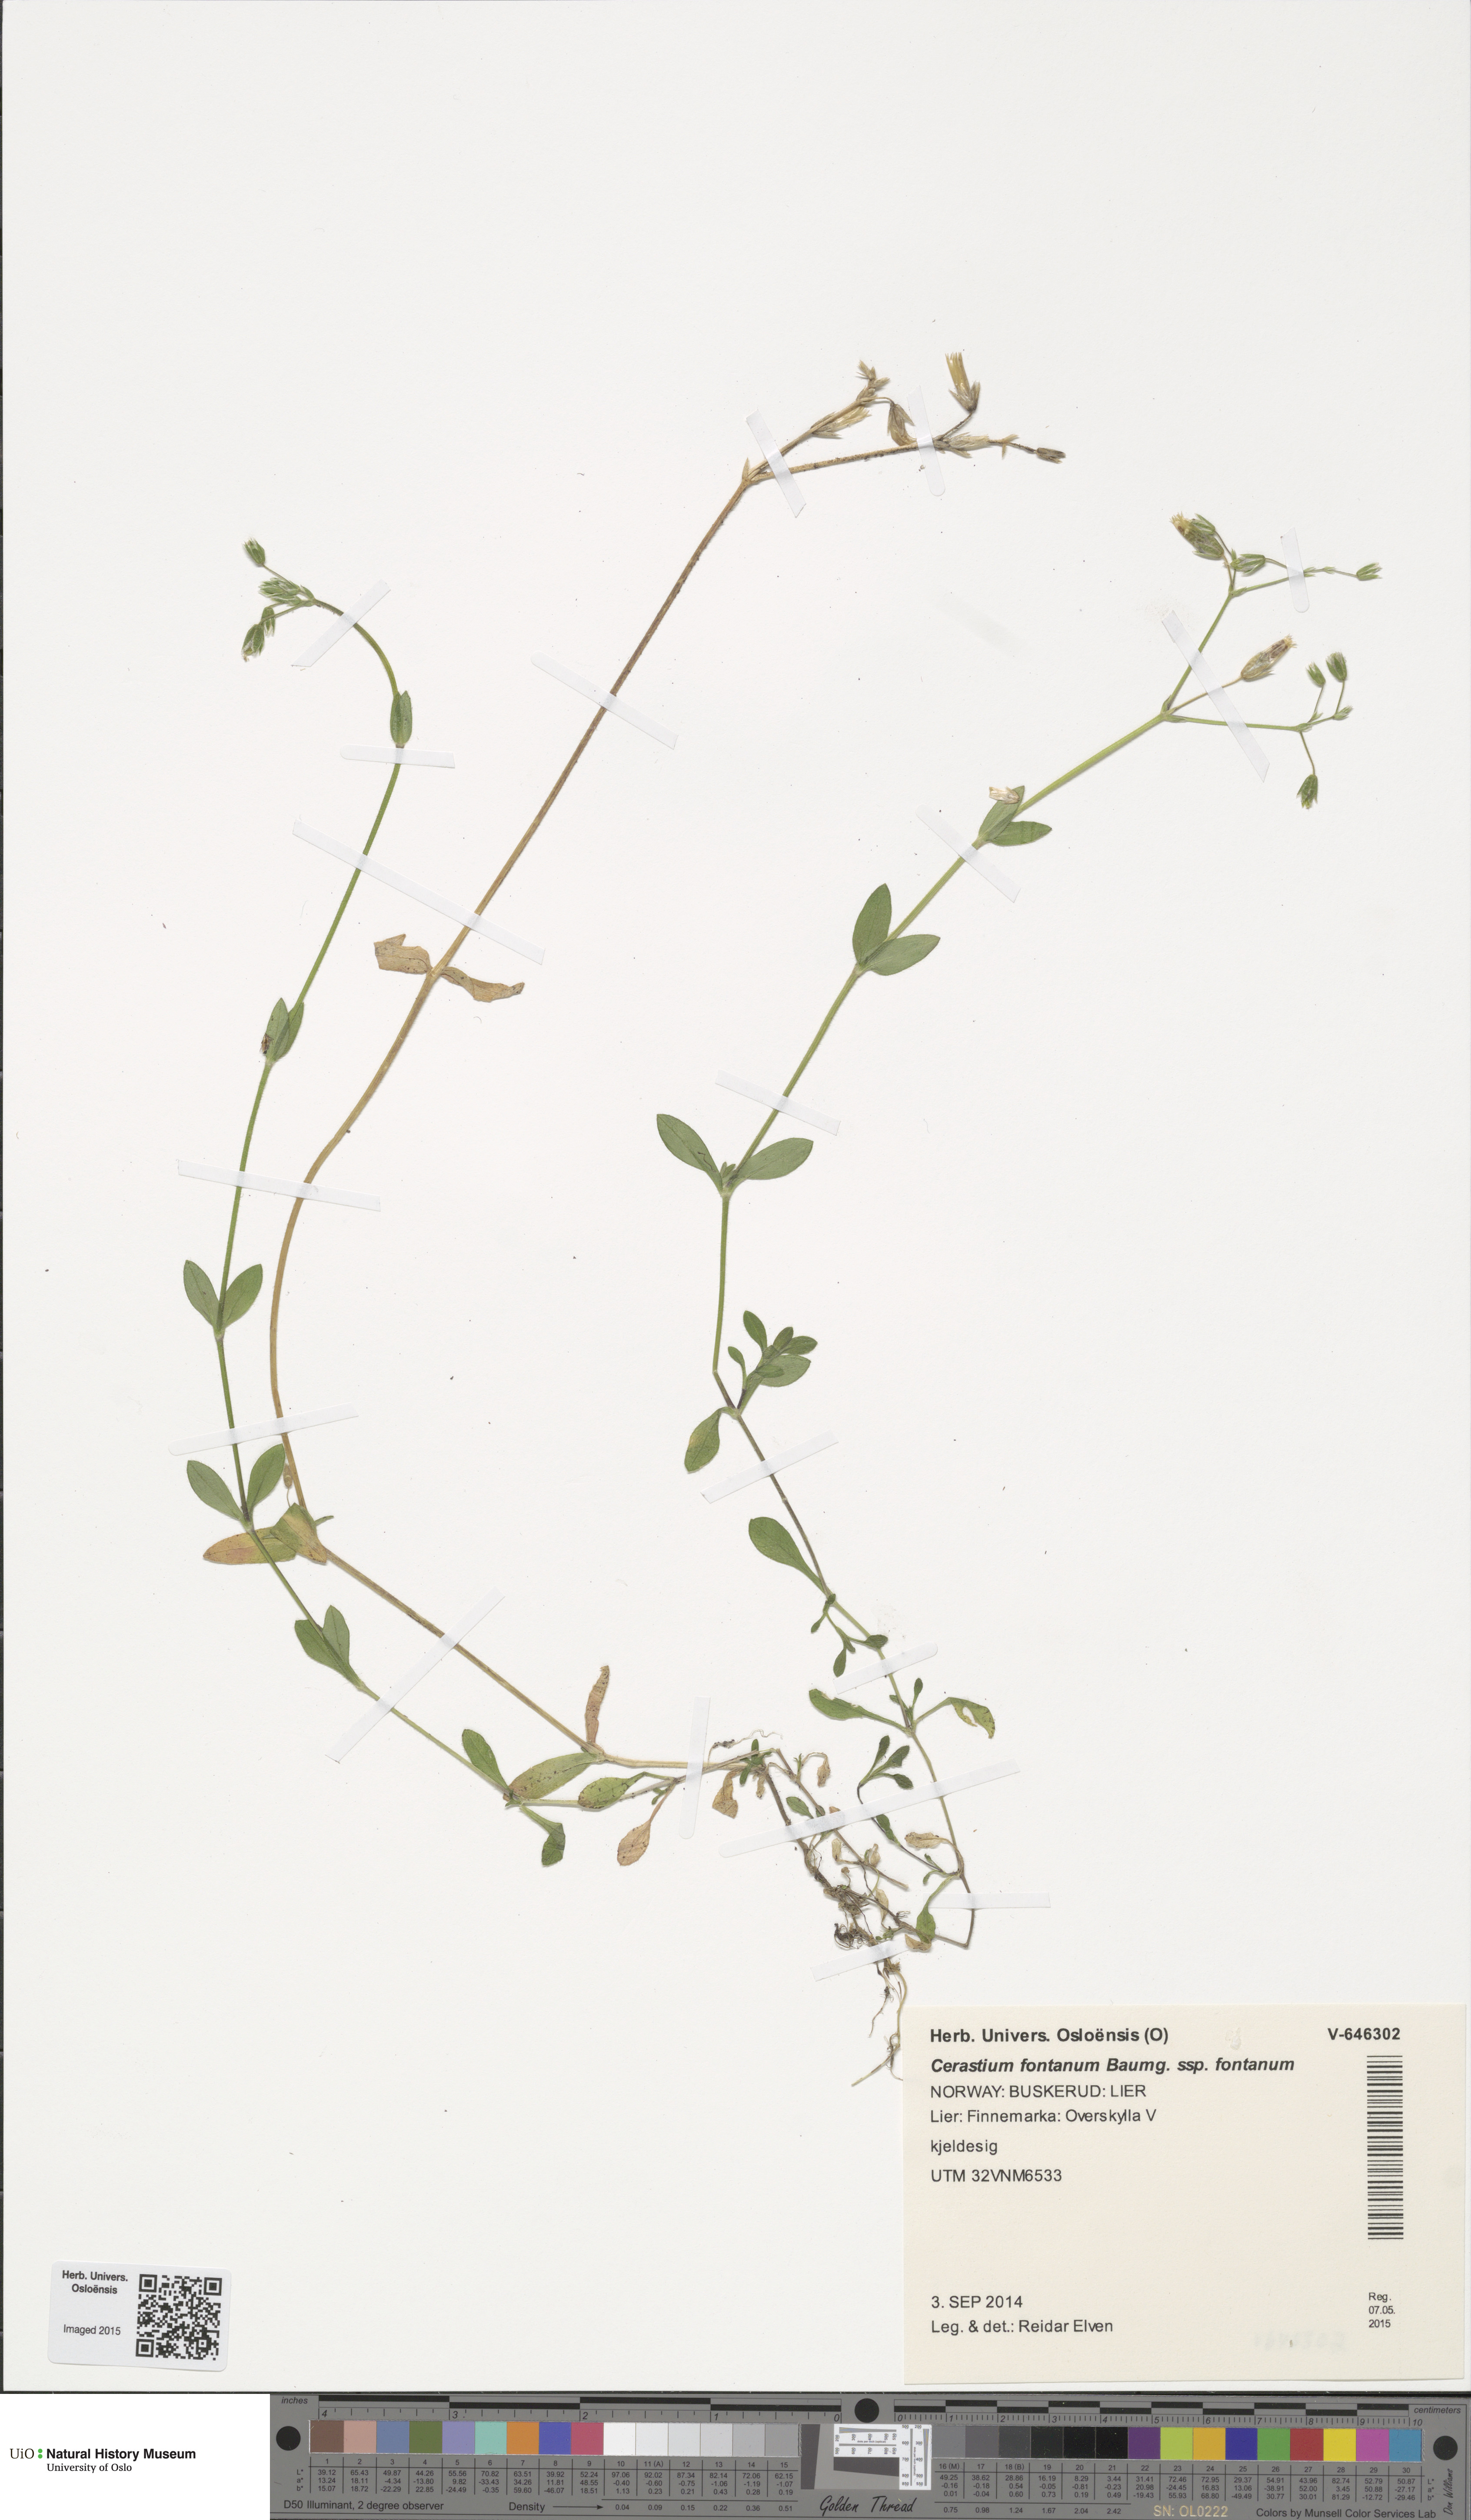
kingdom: Plantae
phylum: Tracheophyta
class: Magnoliopsida
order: Caryophyllales
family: Caryophyllaceae
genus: Cerastium
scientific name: Cerastium fontanum
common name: Common mouse-ear
